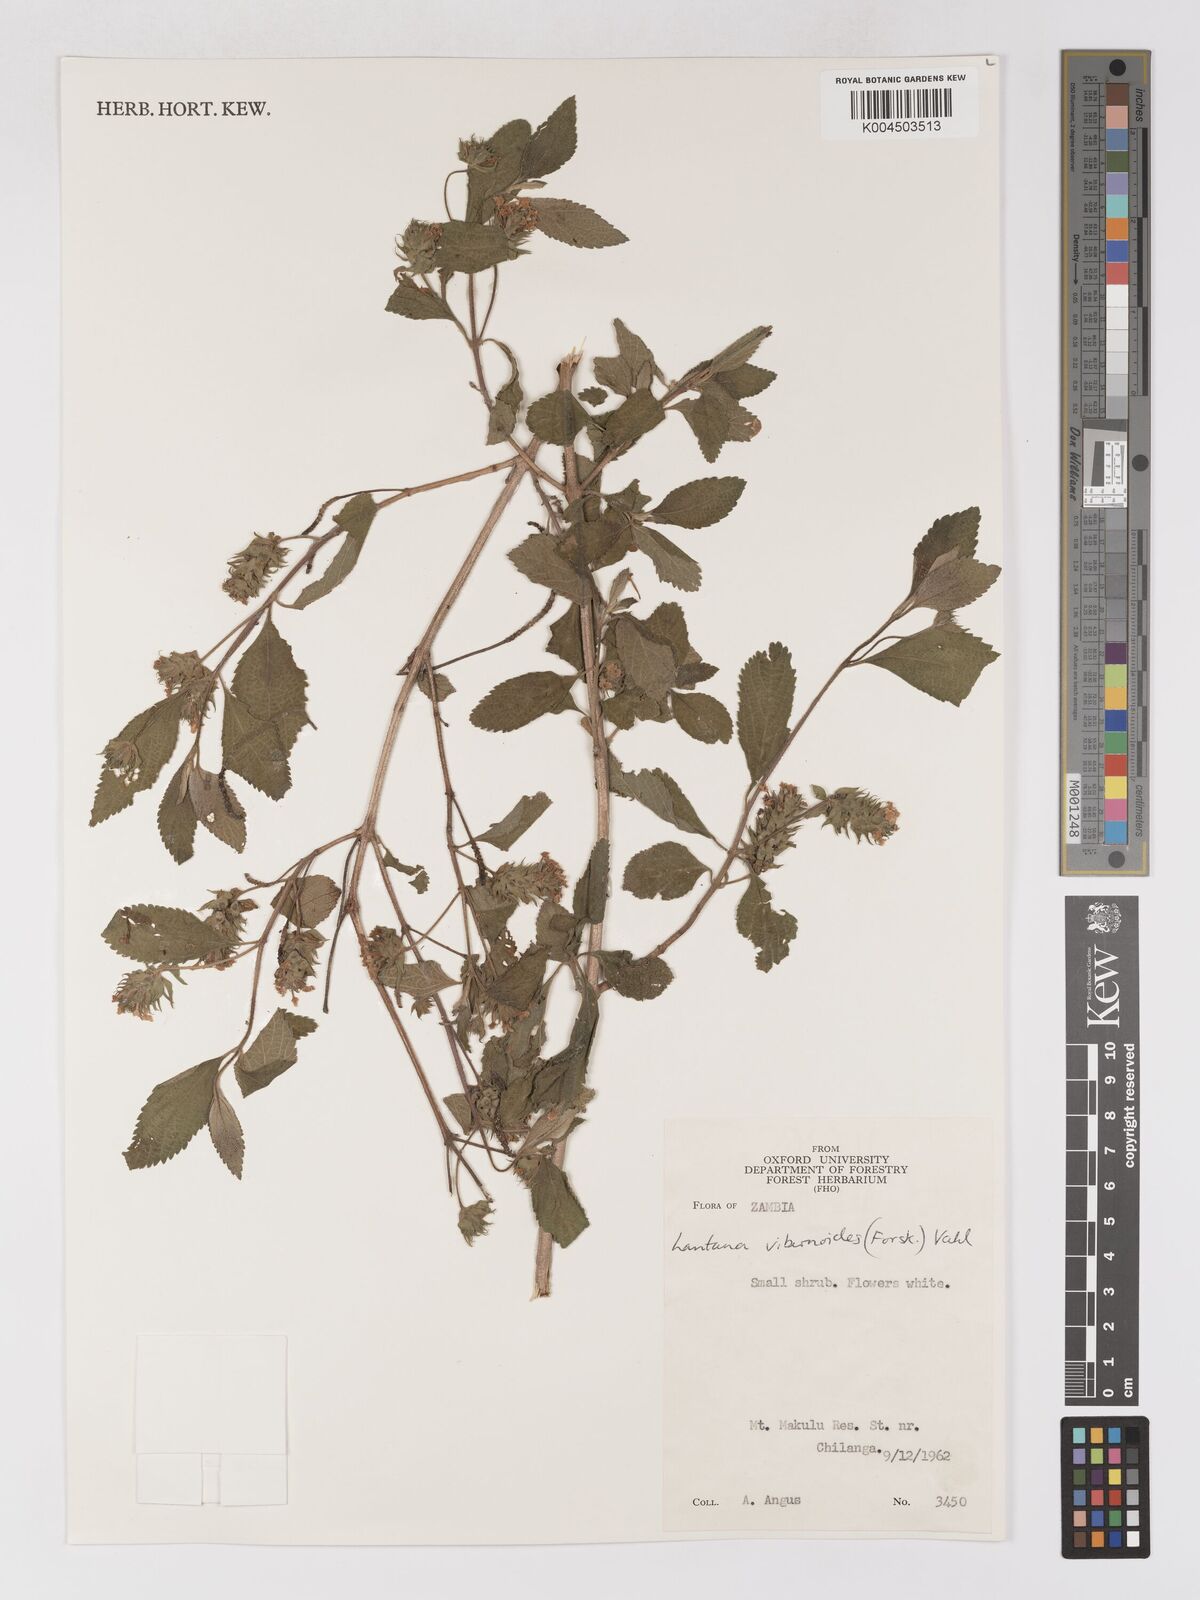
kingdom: Plantae
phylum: Tracheophyta
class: Magnoliopsida
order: Lamiales
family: Verbenaceae
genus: Lantana
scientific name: Lantana
